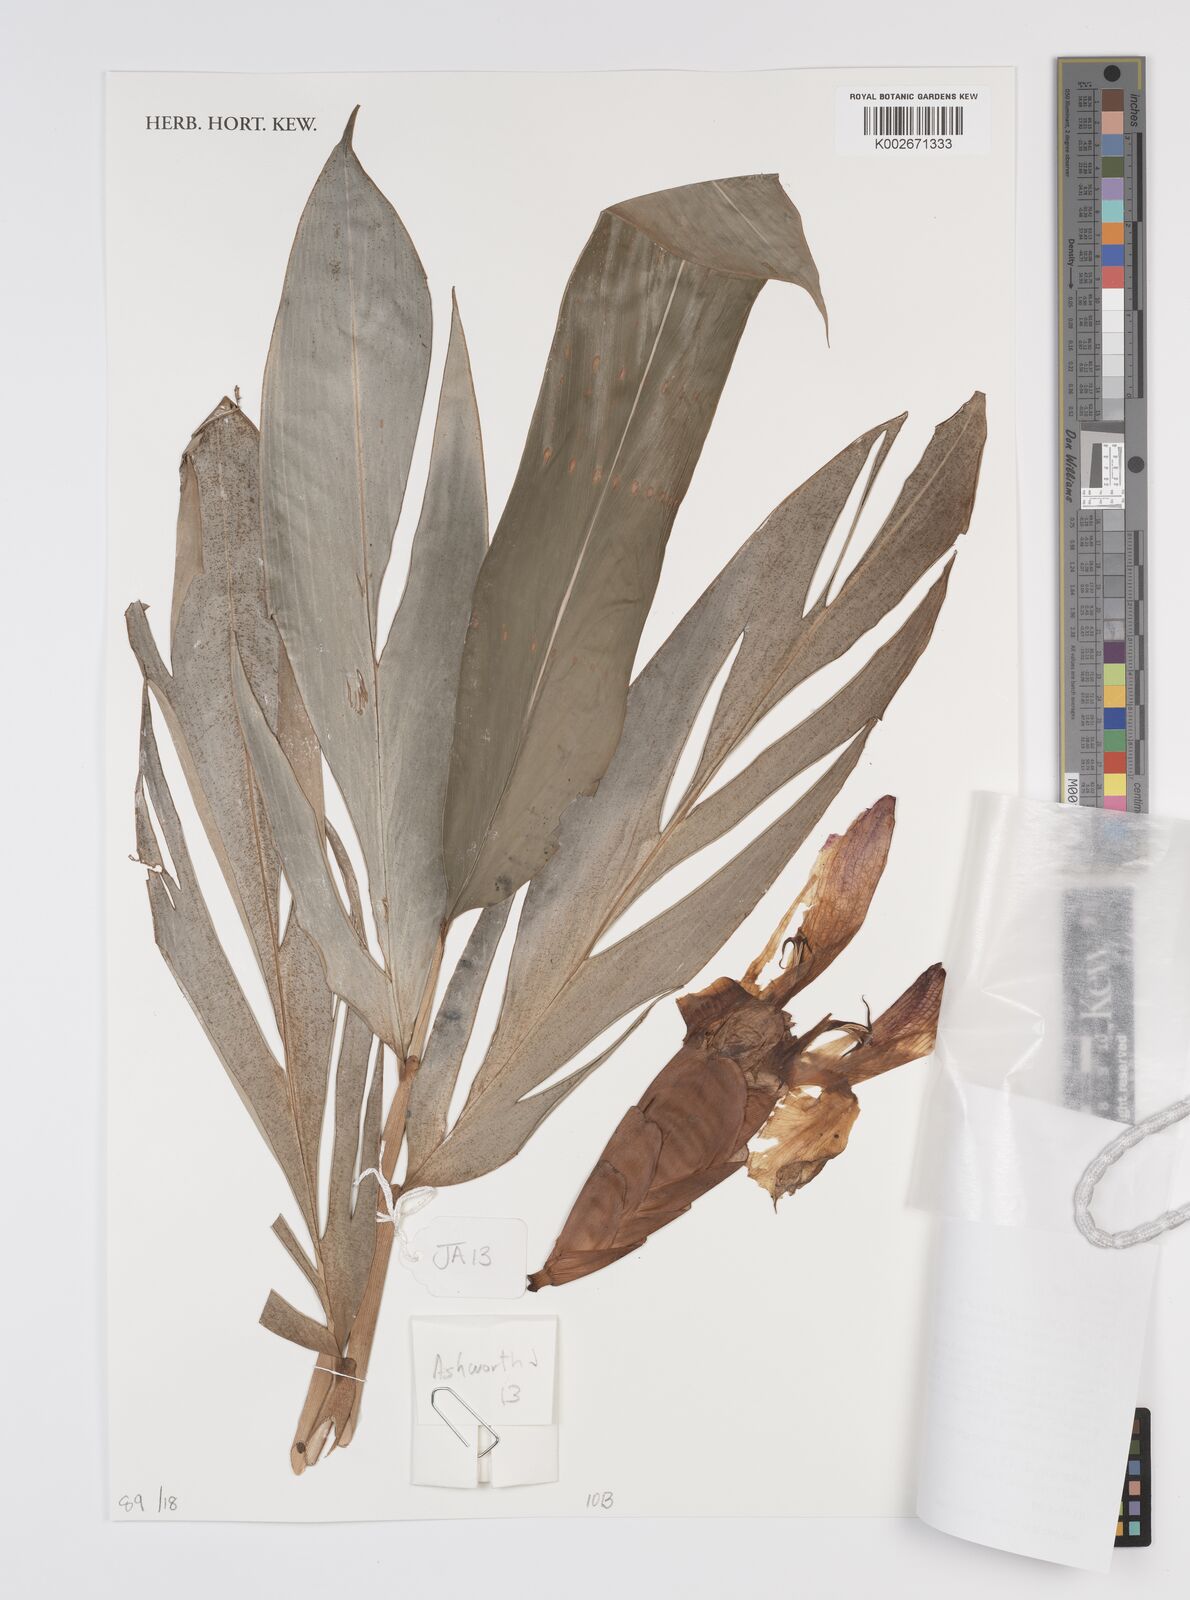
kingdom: Plantae
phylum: Tracheophyta
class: Liliopsida
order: Zingiberales
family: Zingiberaceae
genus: Aframomum
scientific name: Aframomum
